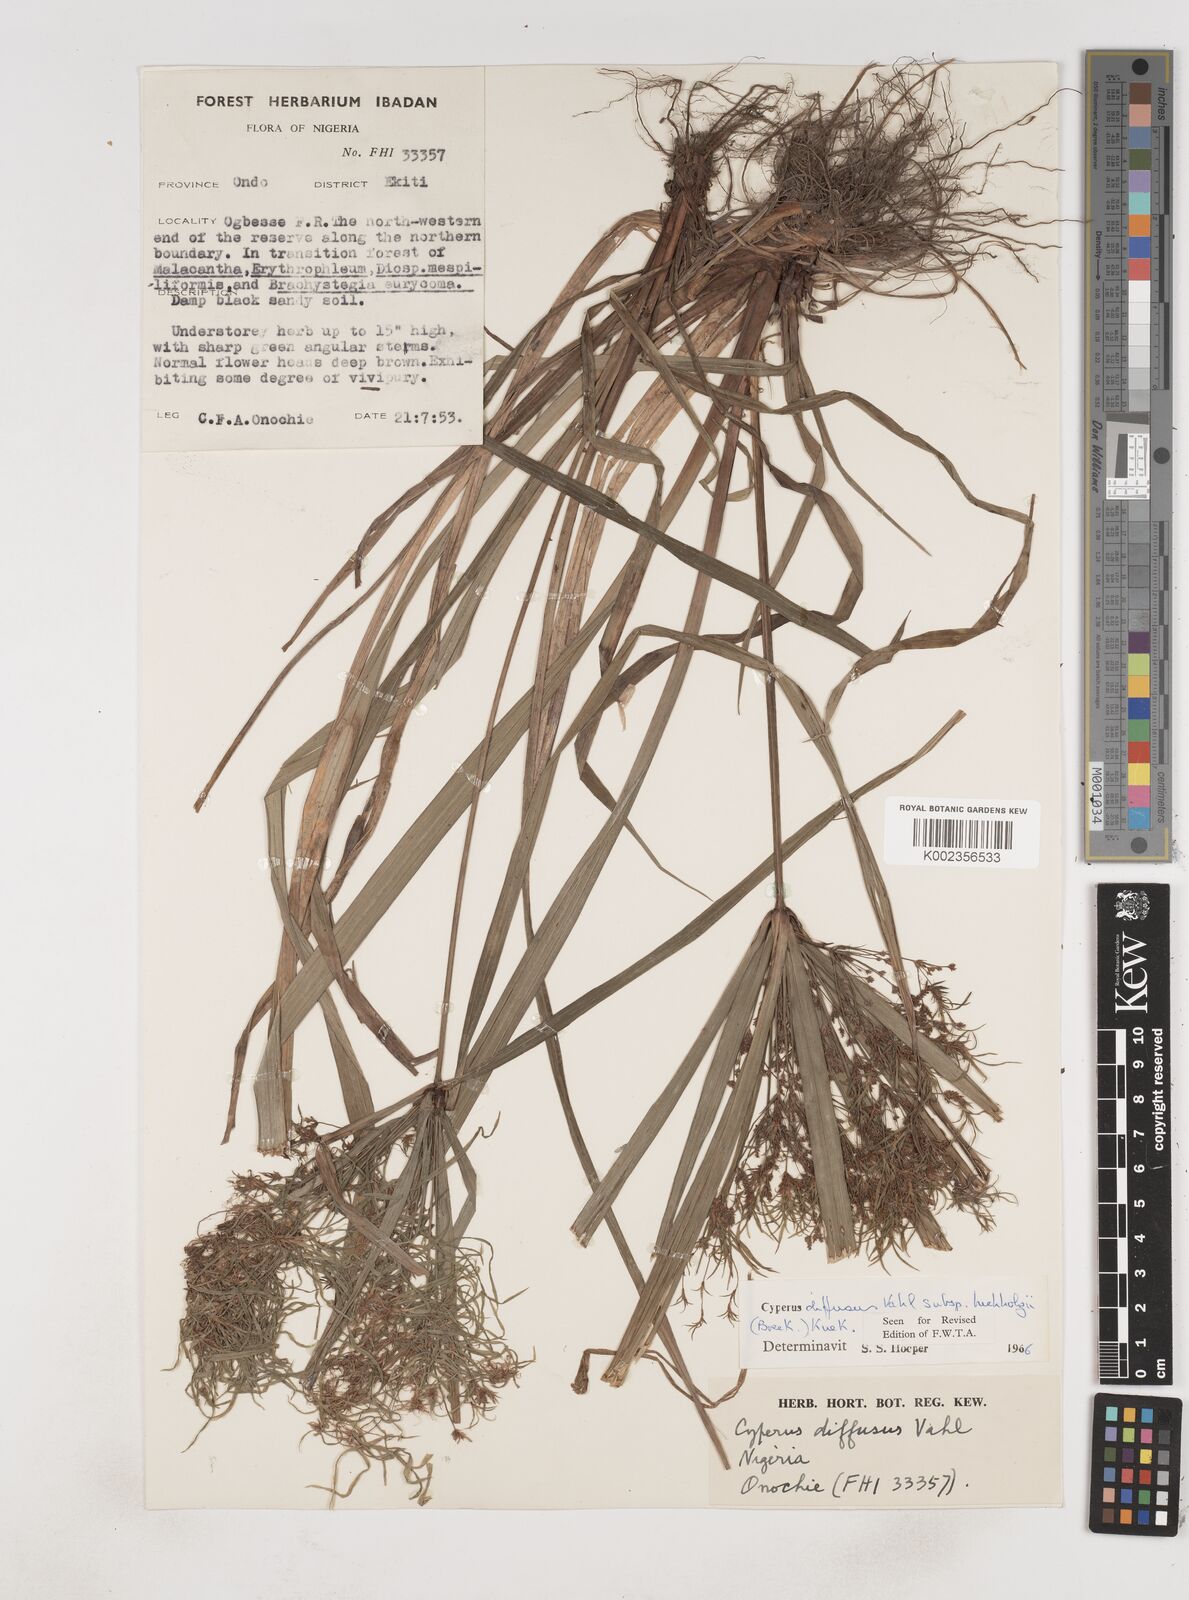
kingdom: Plantae
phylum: Tracheophyta
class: Liliopsida
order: Poales
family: Cyperaceae
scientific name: Cyperaceae
